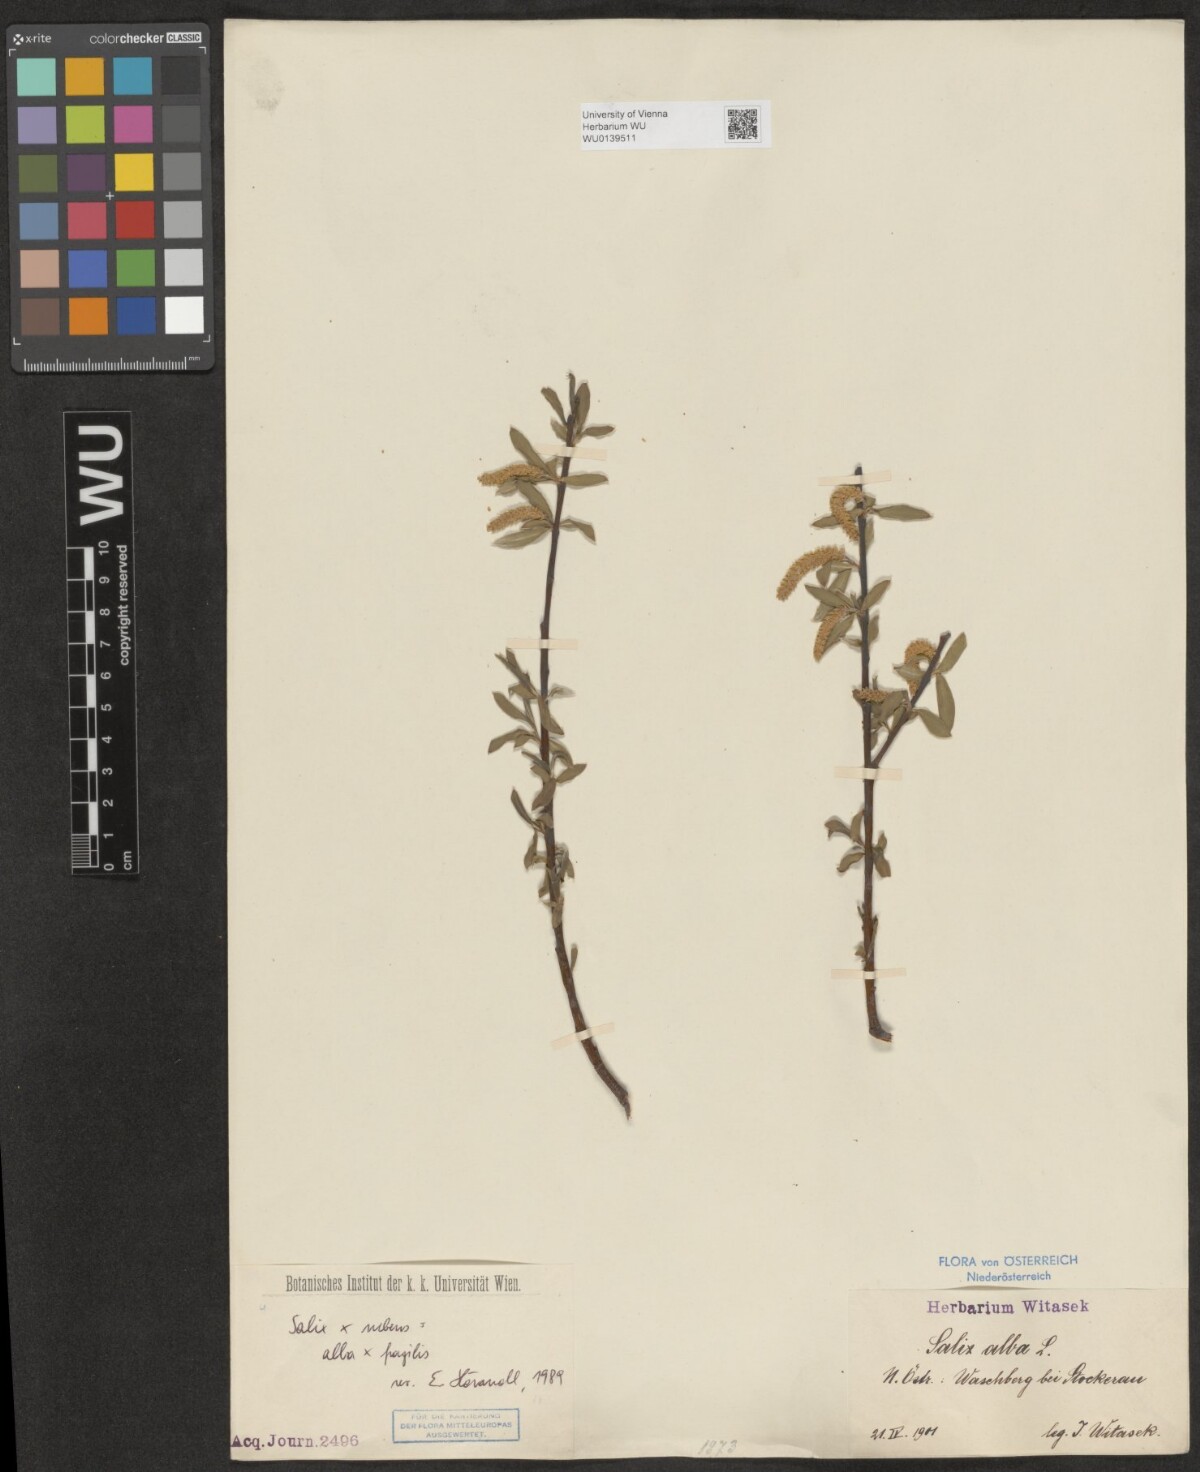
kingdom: Plantae
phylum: Tracheophyta
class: Magnoliopsida
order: Malpighiales
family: Salicaceae
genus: Salix
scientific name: Salix rubens
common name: Hybrid crack willow
